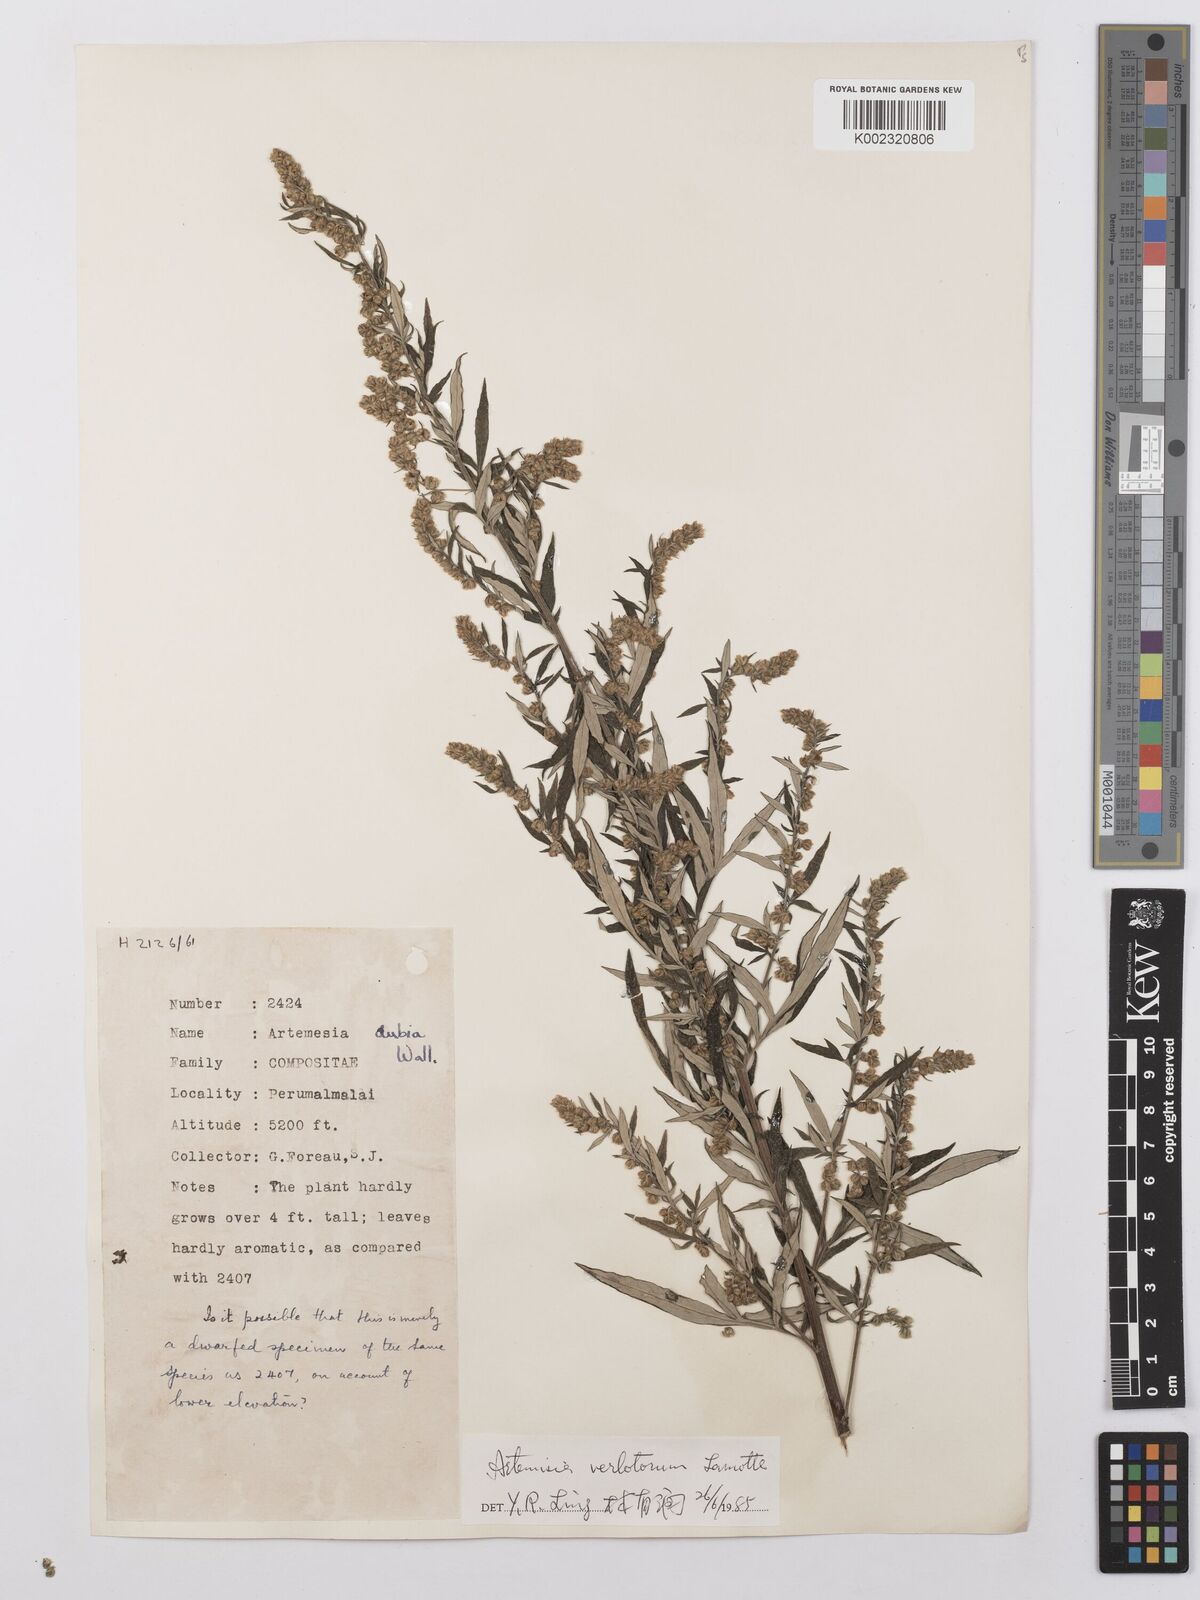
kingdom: Plantae
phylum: Tracheophyta
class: Magnoliopsida
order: Asterales
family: Asteraceae
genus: Artemisia
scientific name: Artemisia dubia
